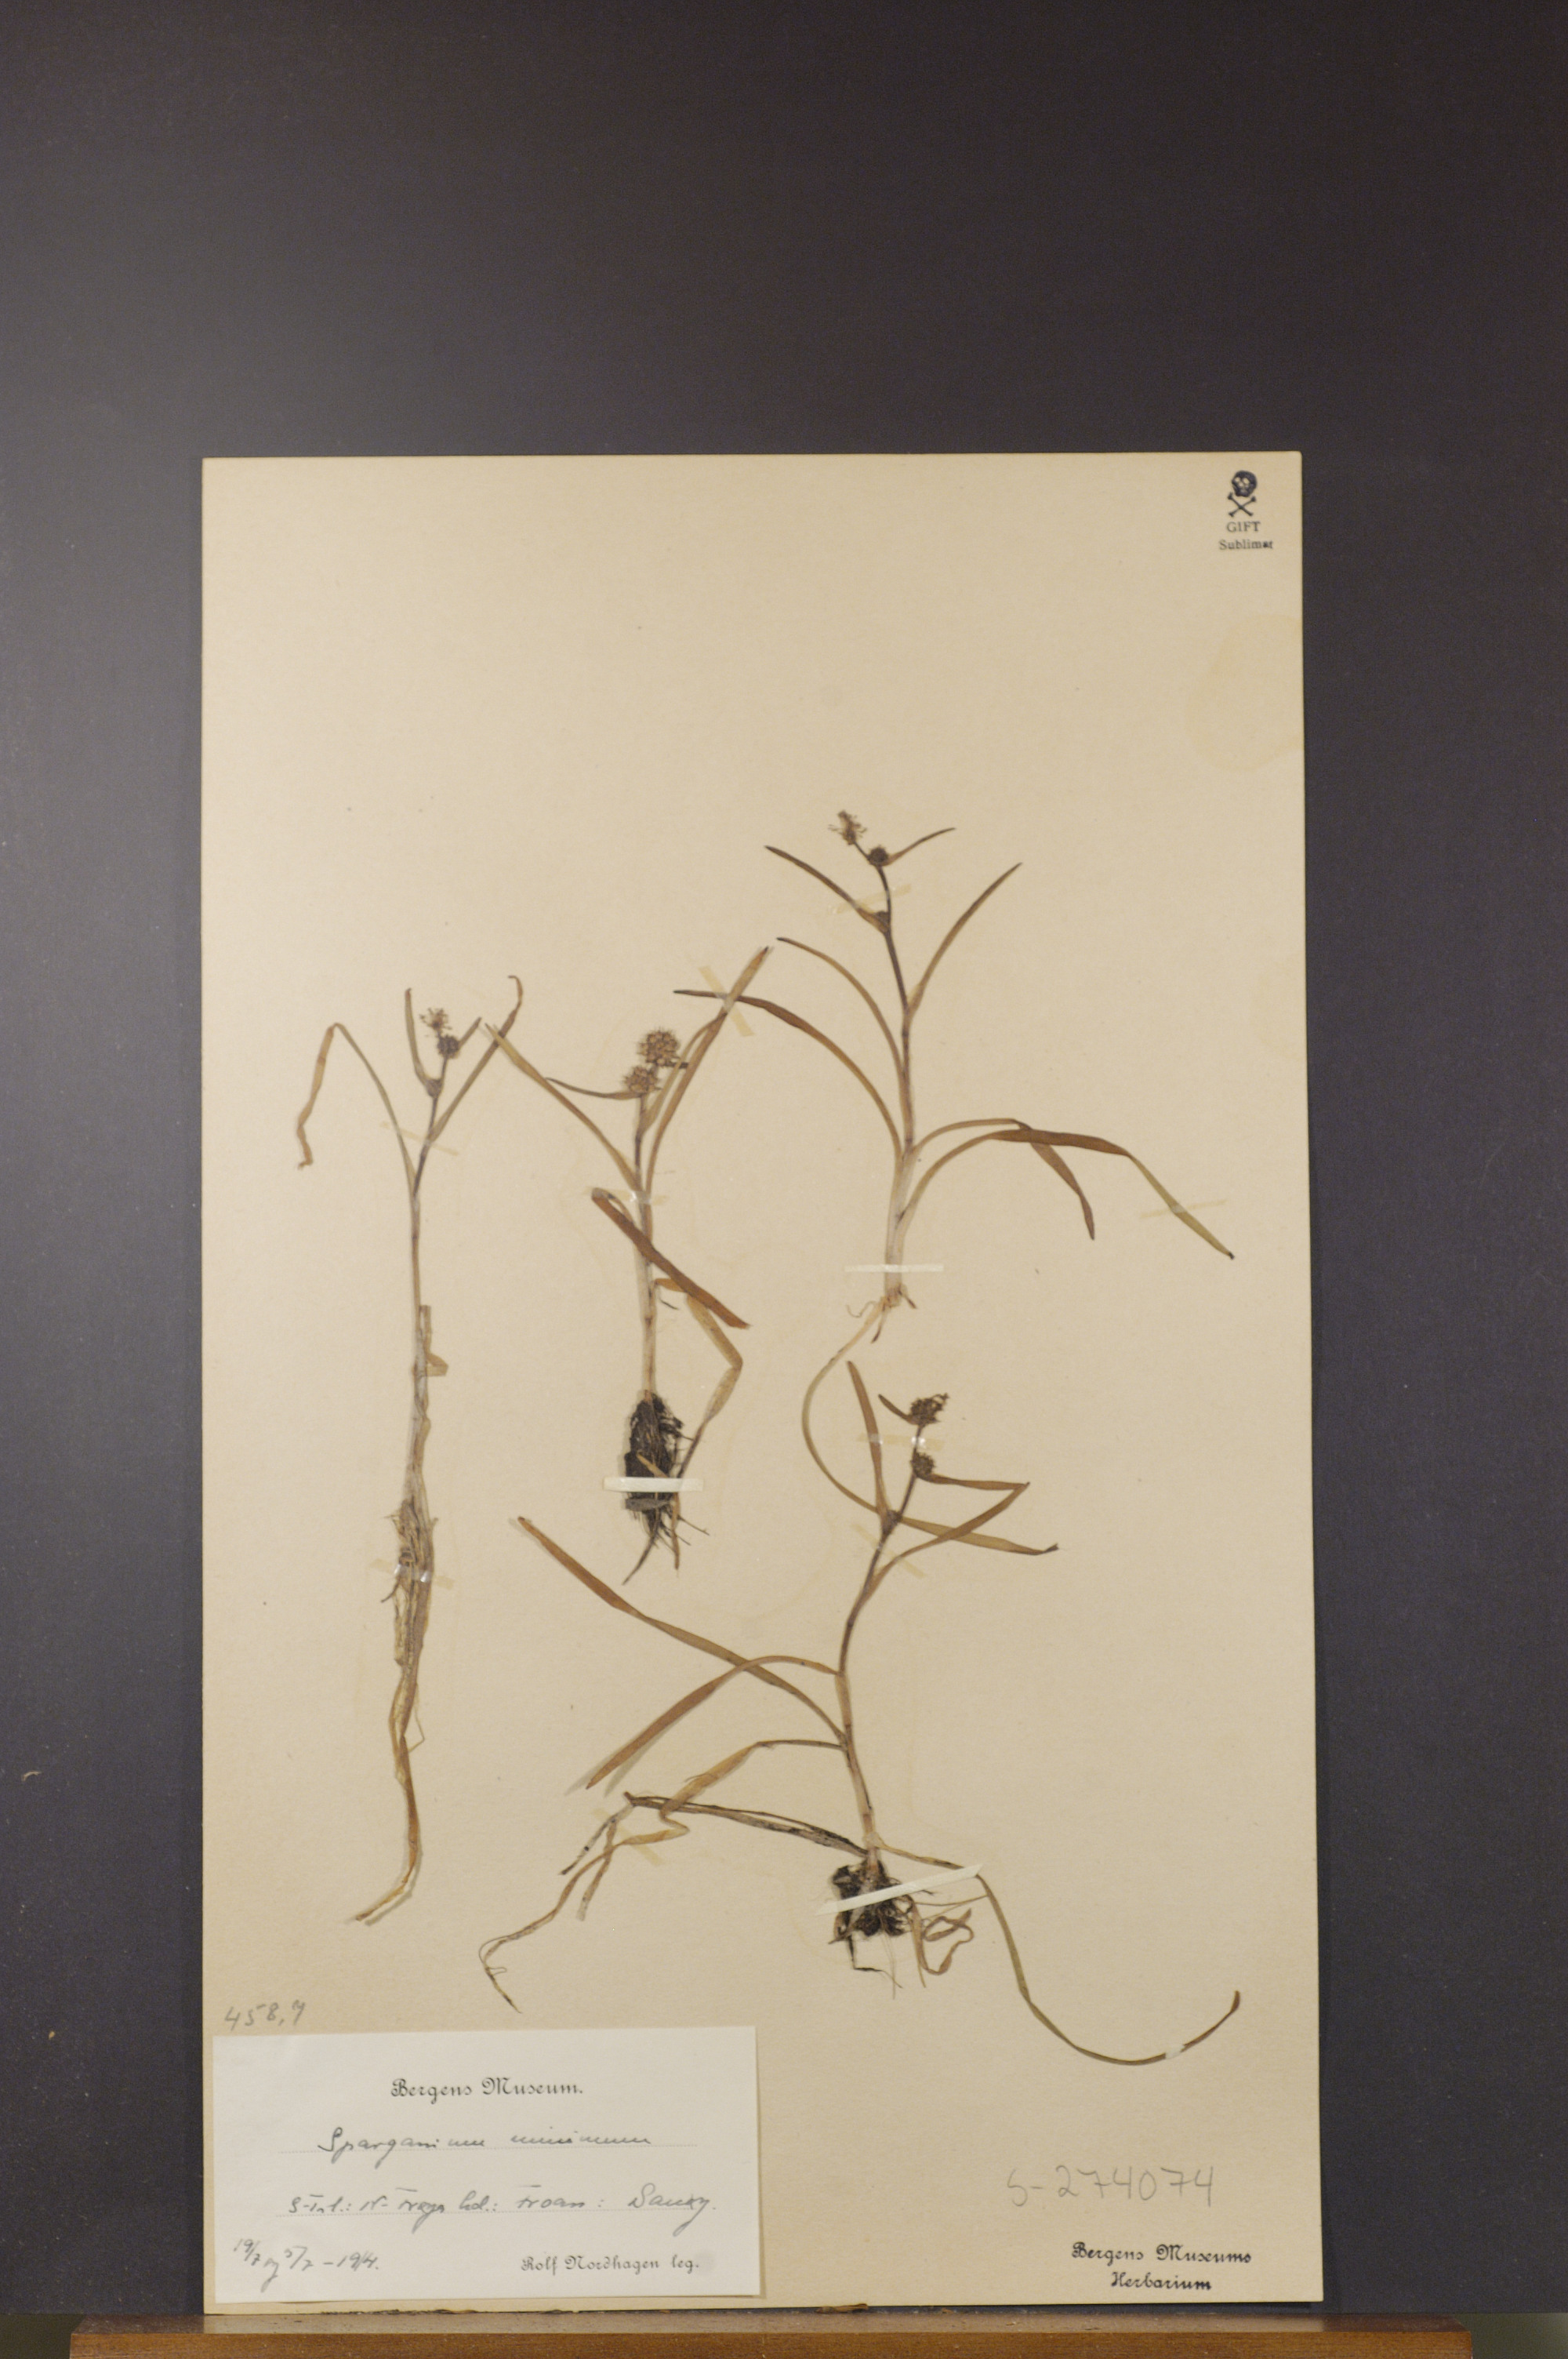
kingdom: Plantae
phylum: Tracheophyta
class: Liliopsida
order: Poales
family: Typhaceae
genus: Sparganium
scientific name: Sparganium natans
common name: Least bur-reed
